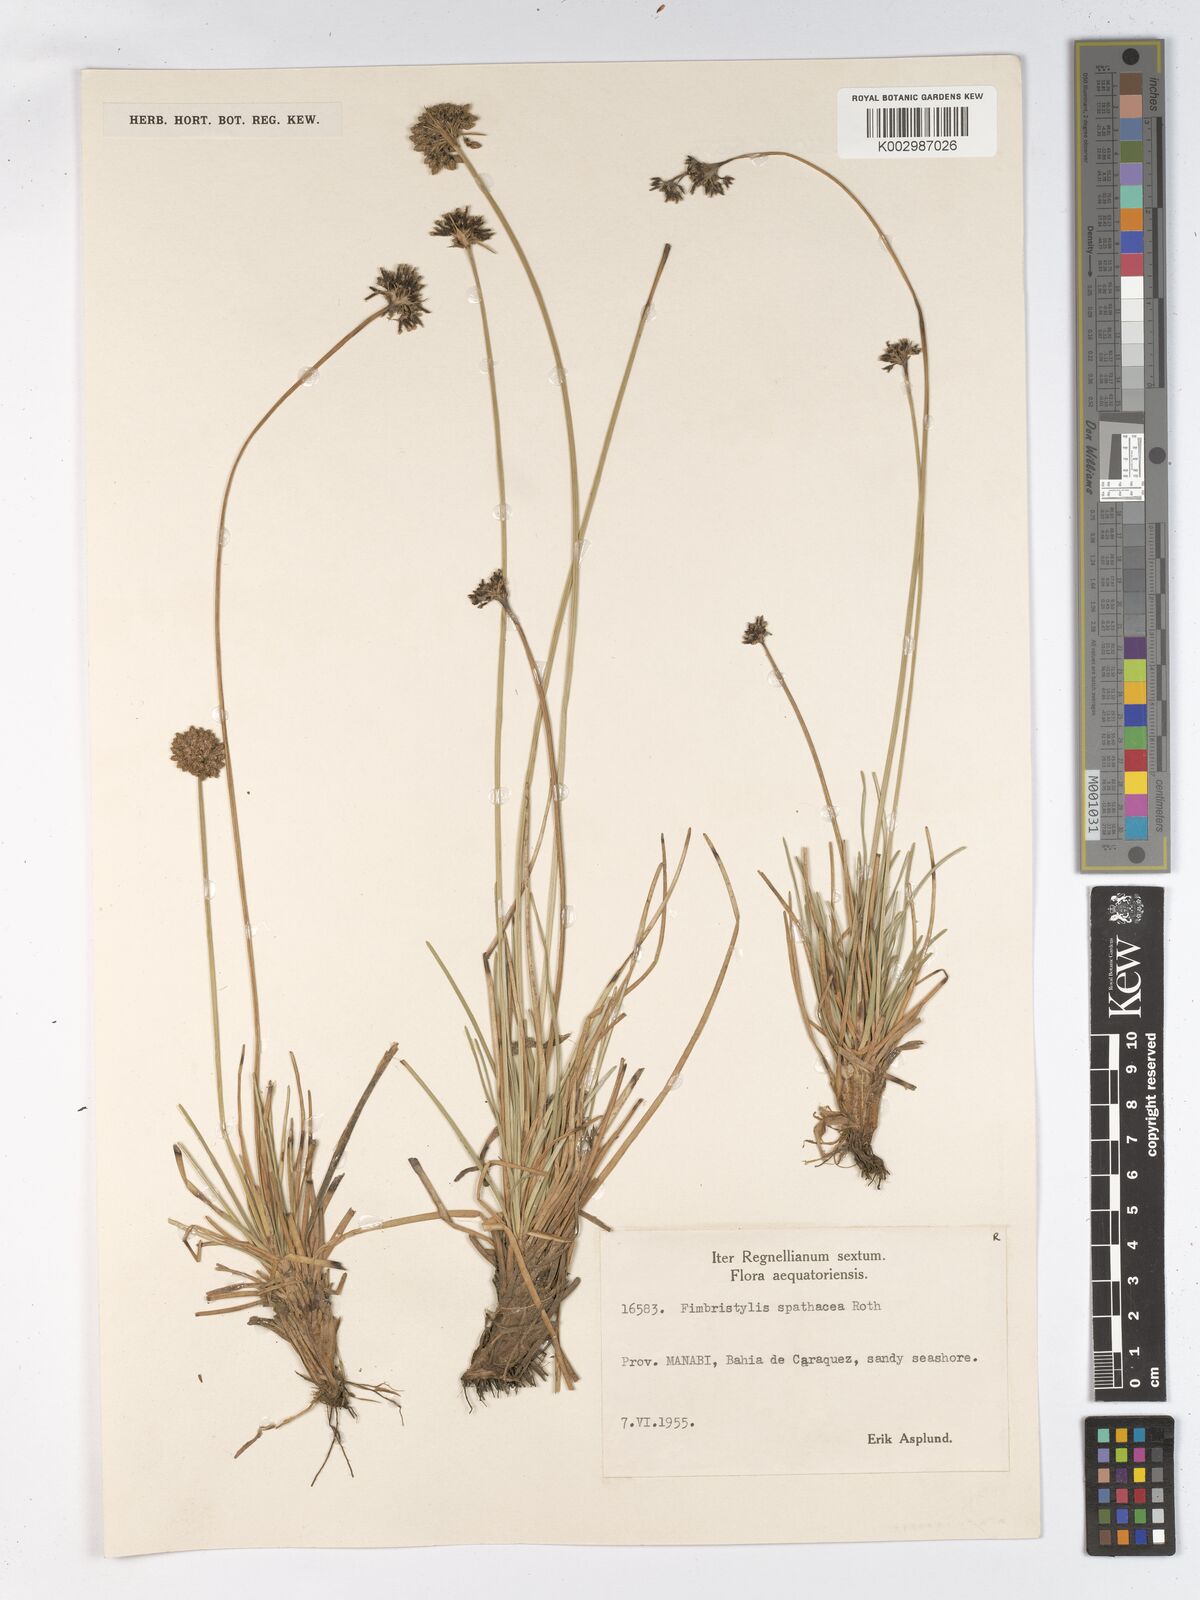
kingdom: Plantae
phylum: Tracheophyta
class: Liliopsida
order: Poales
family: Cyperaceae
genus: Fimbristylis
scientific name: Fimbristylis cymosa
